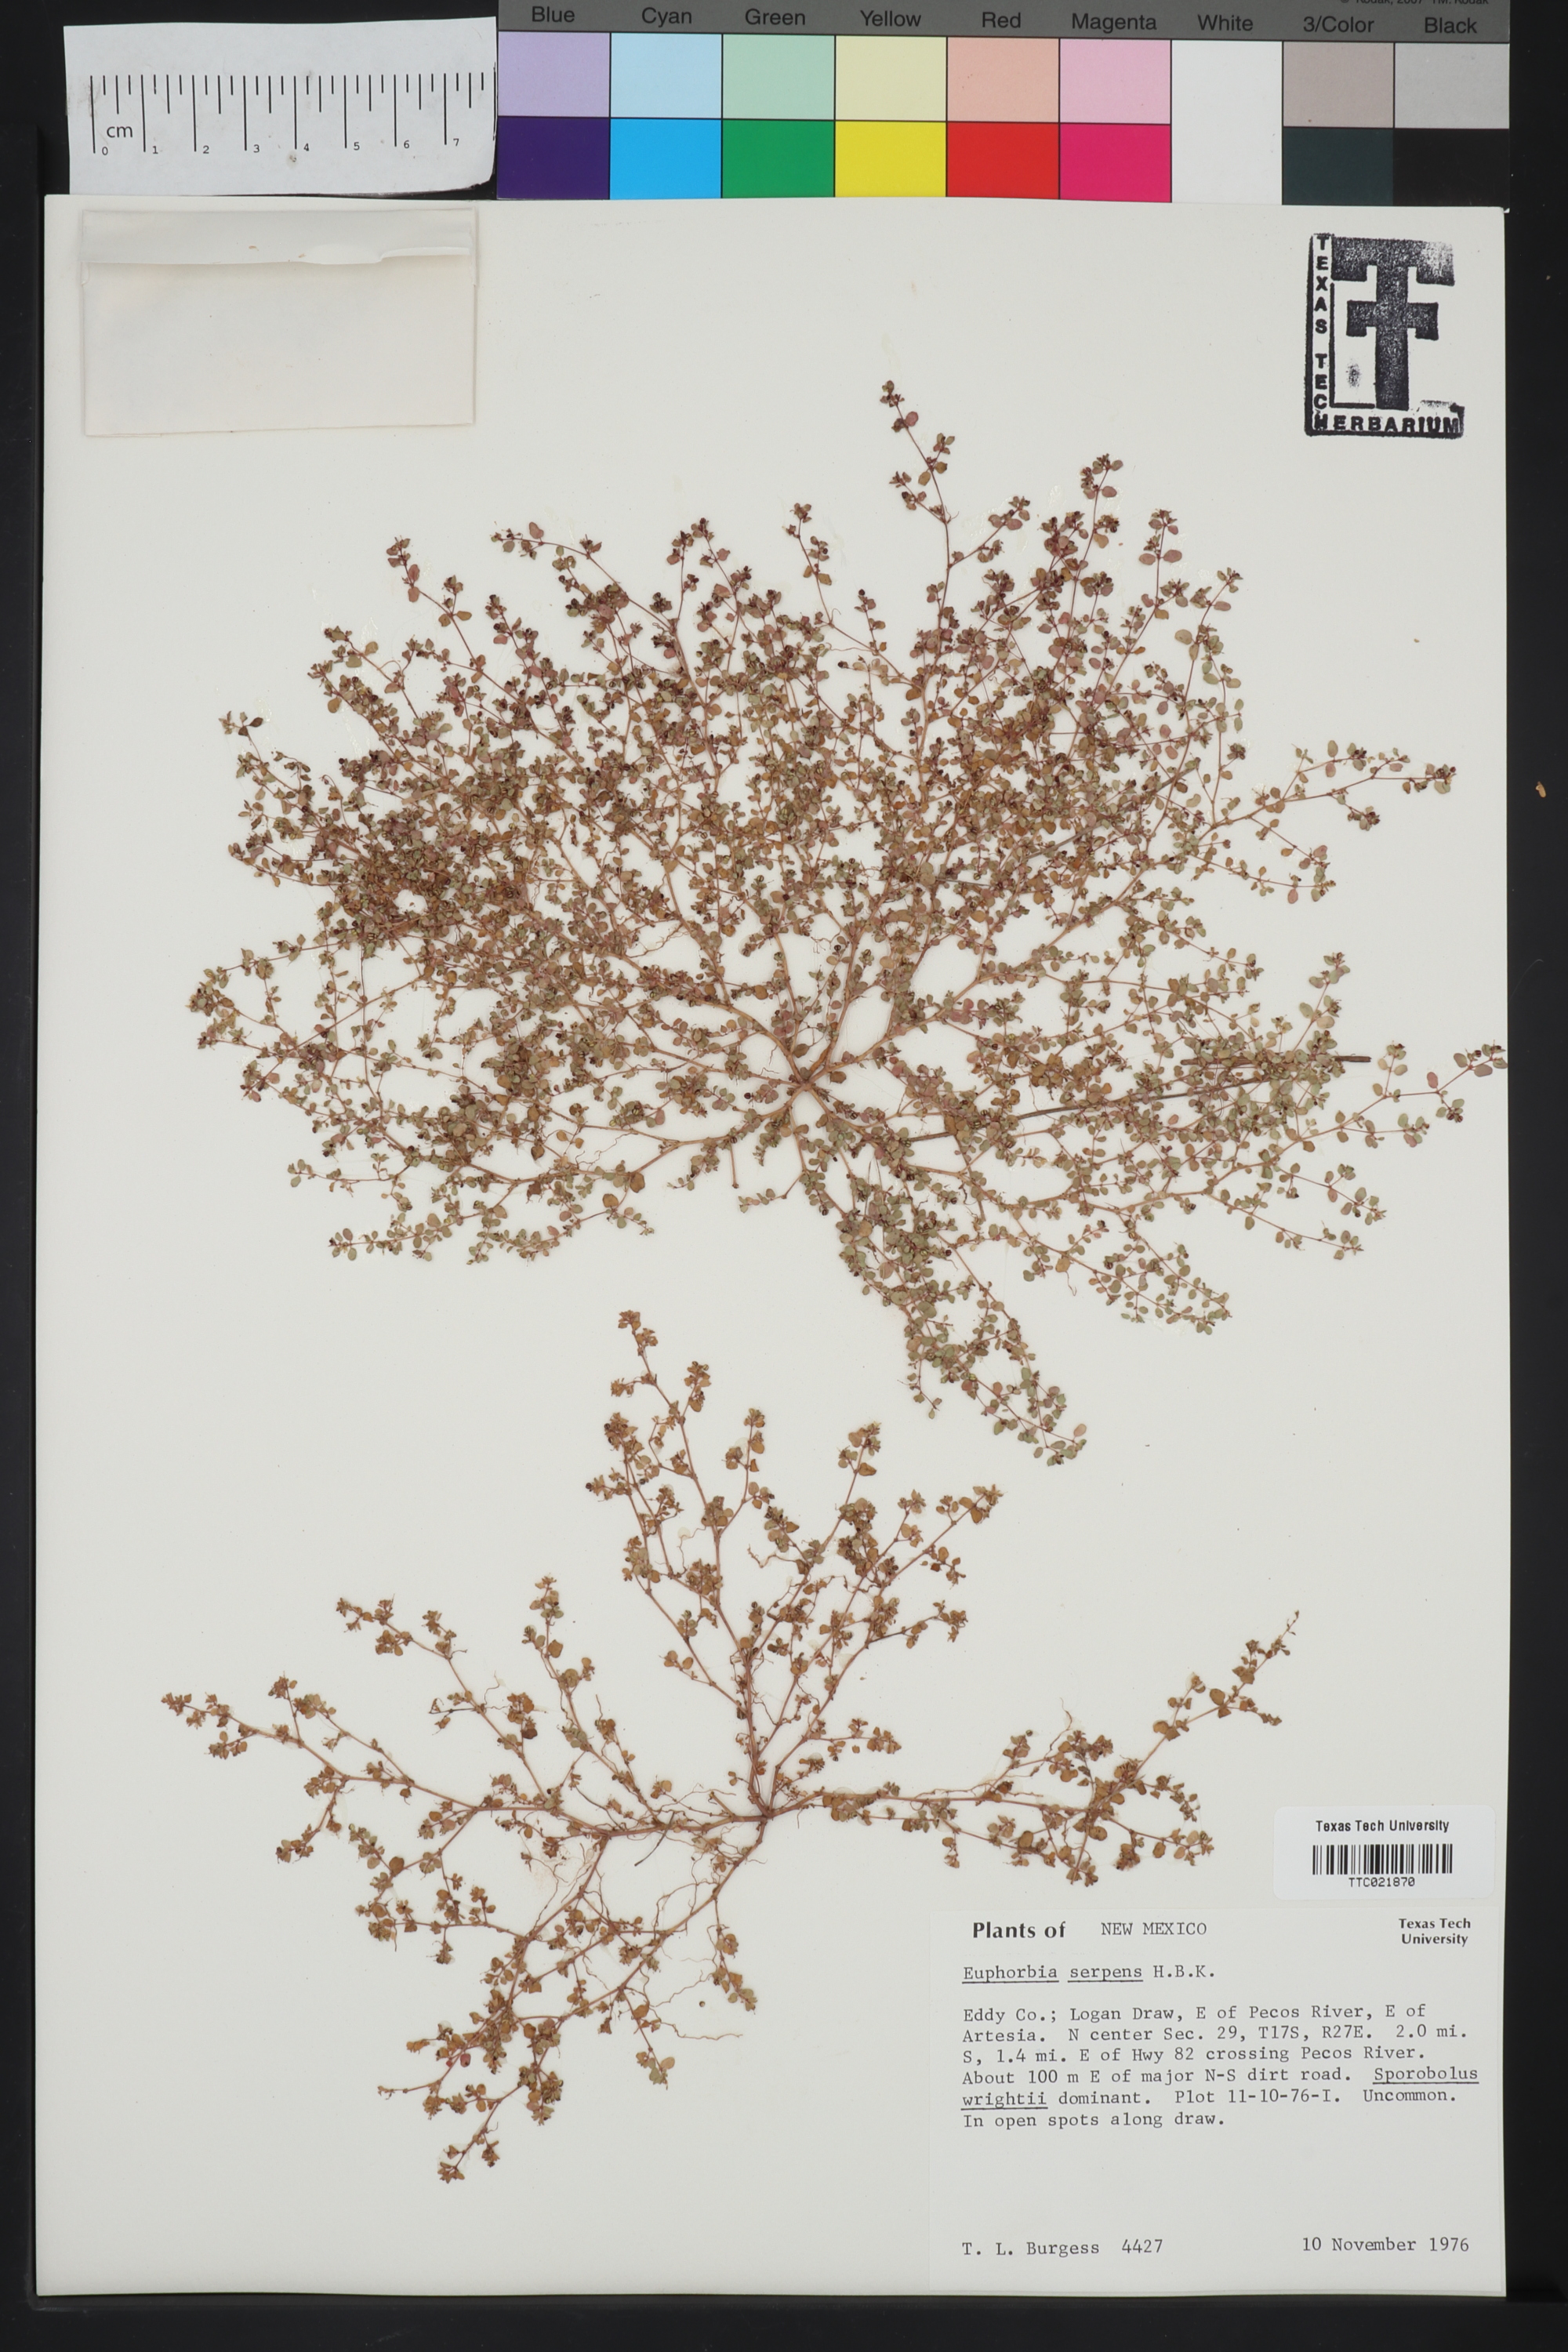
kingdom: Plantae
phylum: Tracheophyta
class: Magnoliopsida
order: Malpighiales
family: Euphorbiaceae
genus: Euphorbia
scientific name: Euphorbia serpens
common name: Matted sandmat
